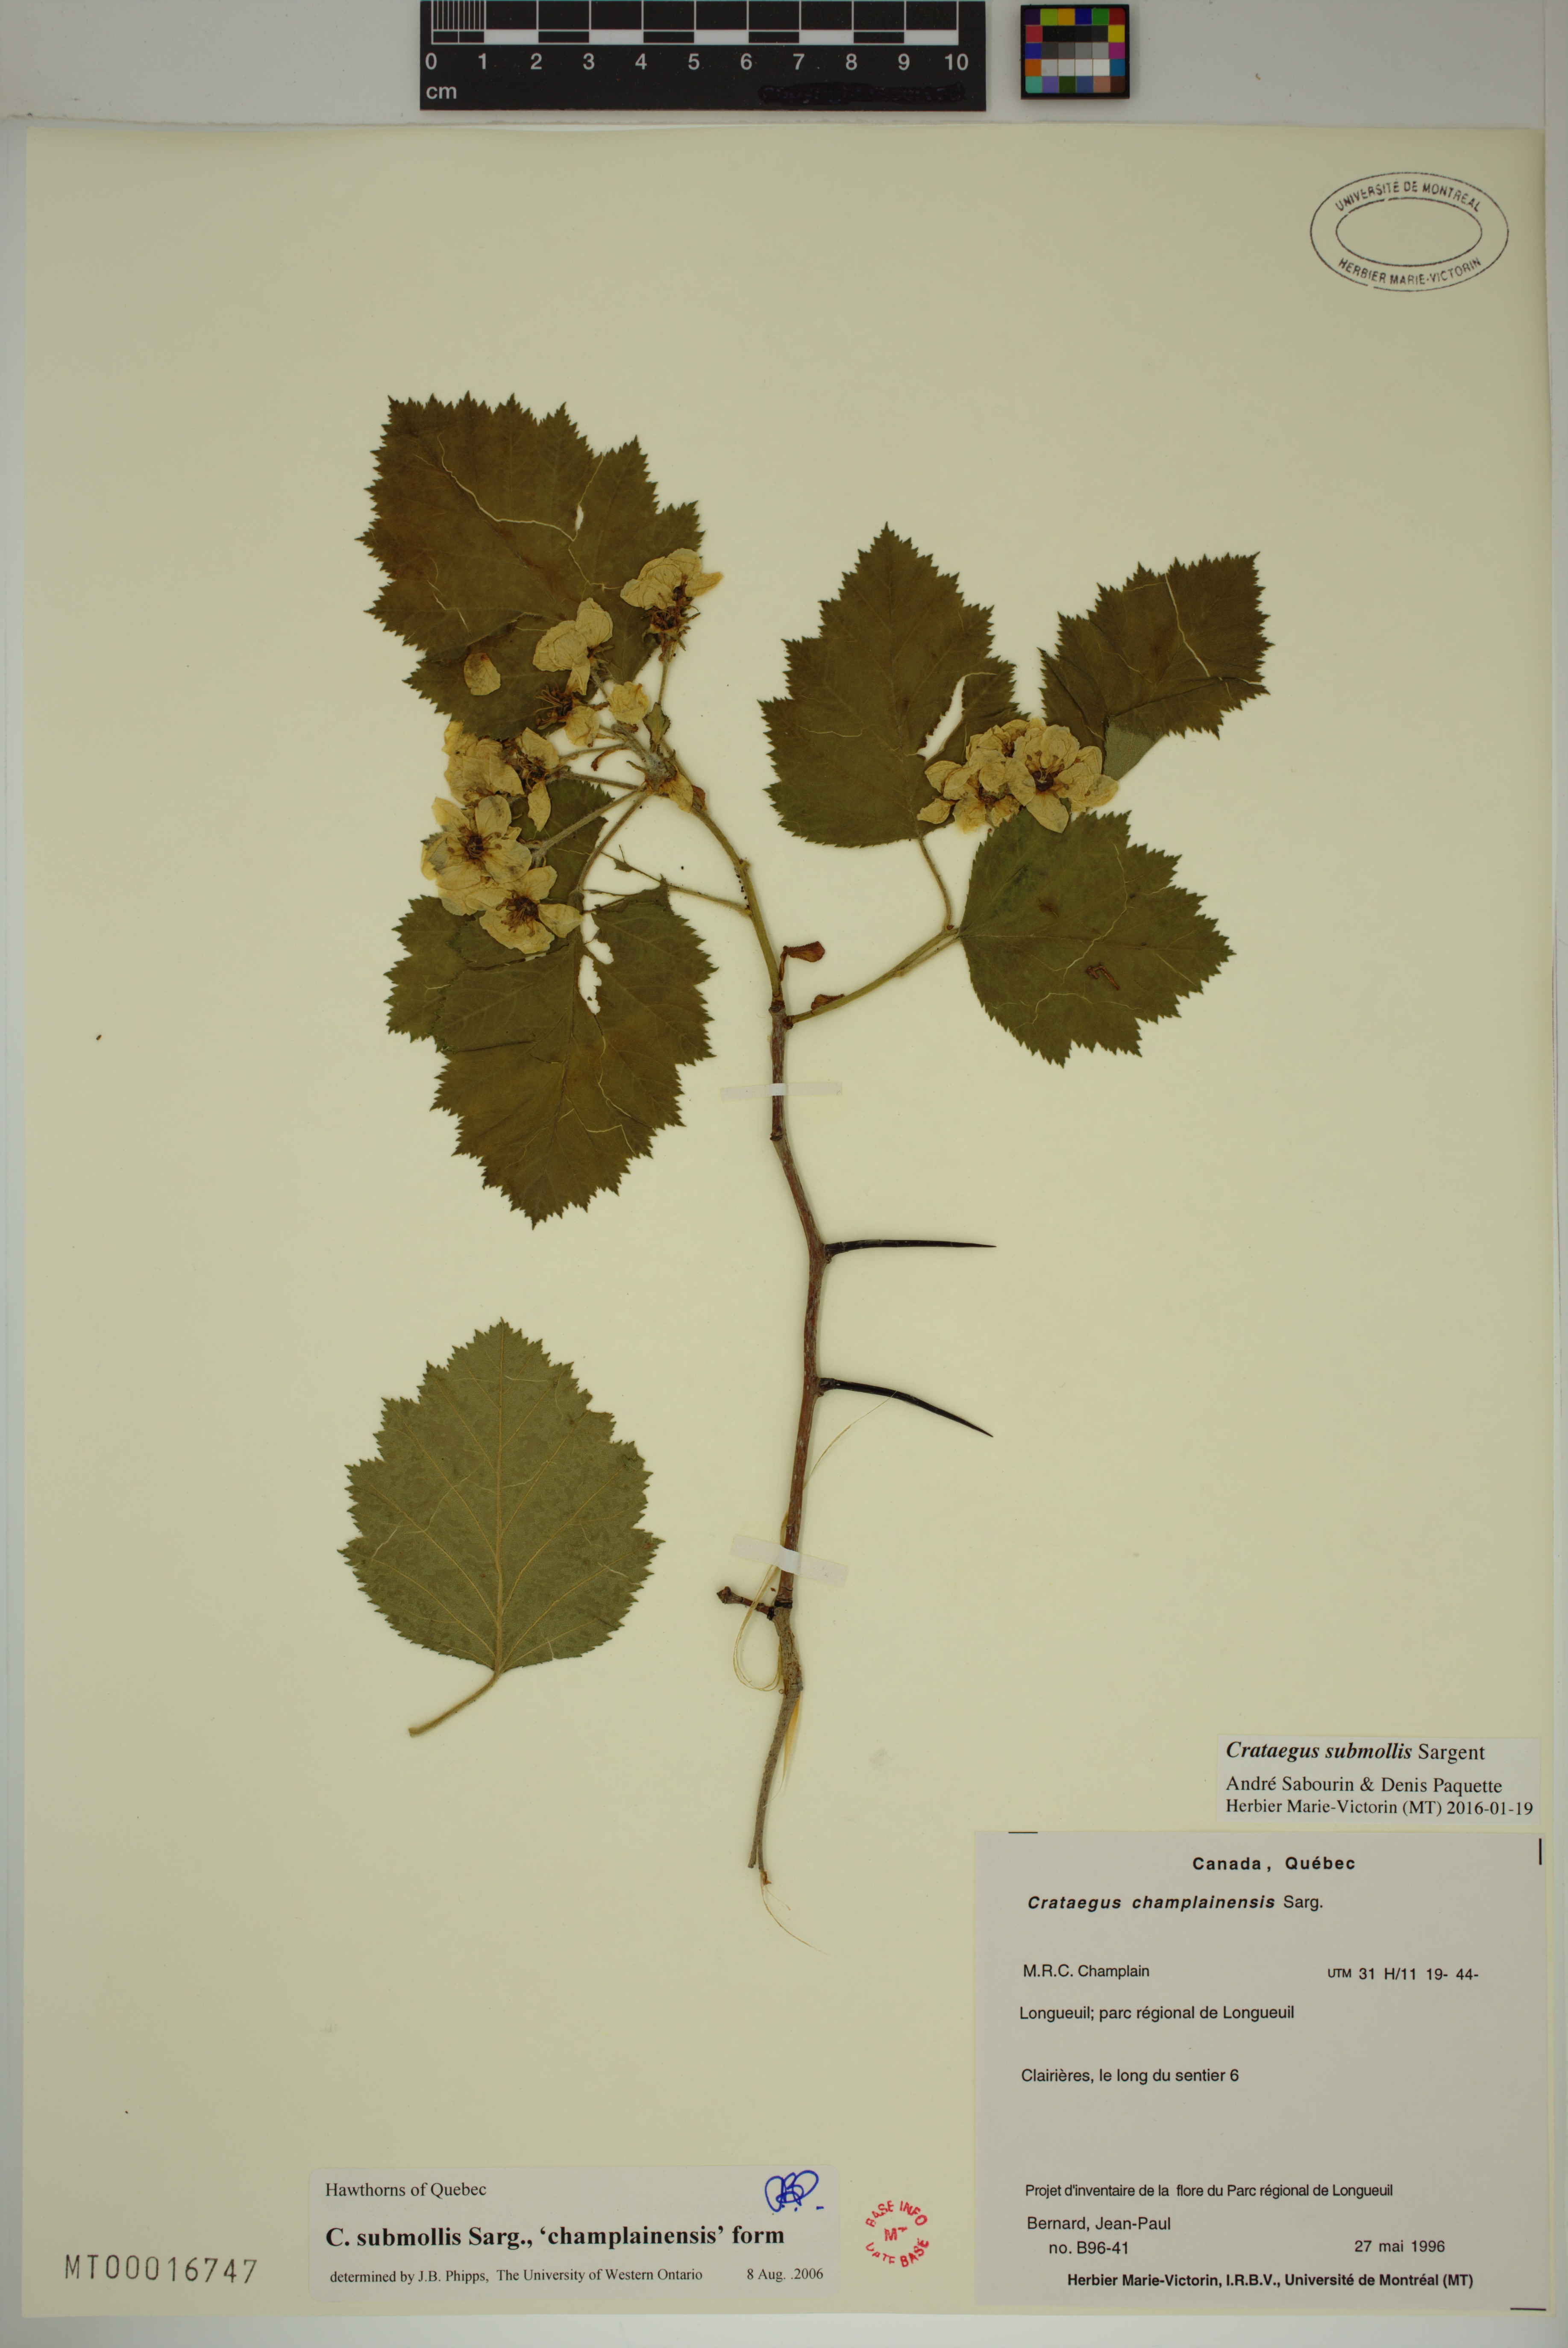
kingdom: Plantae
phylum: Tracheophyta
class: Magnoliopsida
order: Rosales
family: Rosaceae
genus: Crataegus
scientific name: Crataegus submollis
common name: Hairy cockspurthorn
